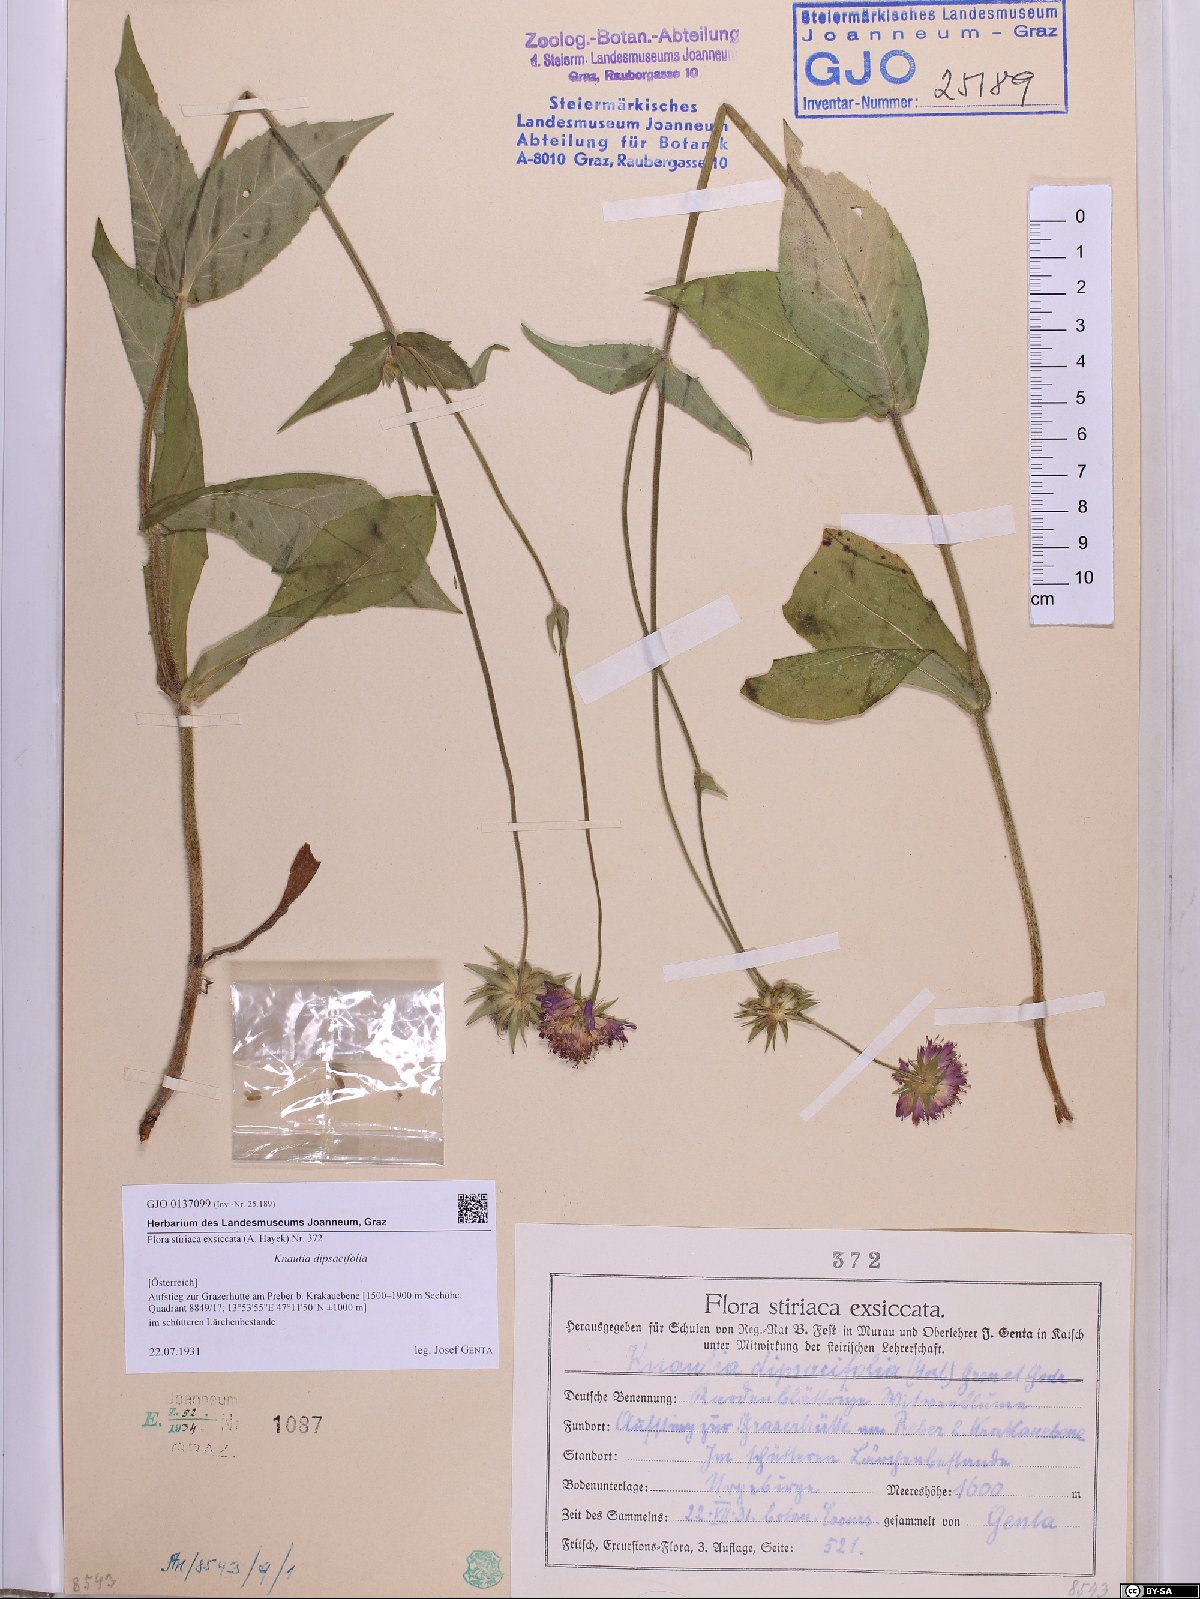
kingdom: Plantae
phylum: Tracheophyta
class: Magnoliopsida
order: Dipsacales
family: Caprifoliaceae
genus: Knautia
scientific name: Knautia dipsacifolia
